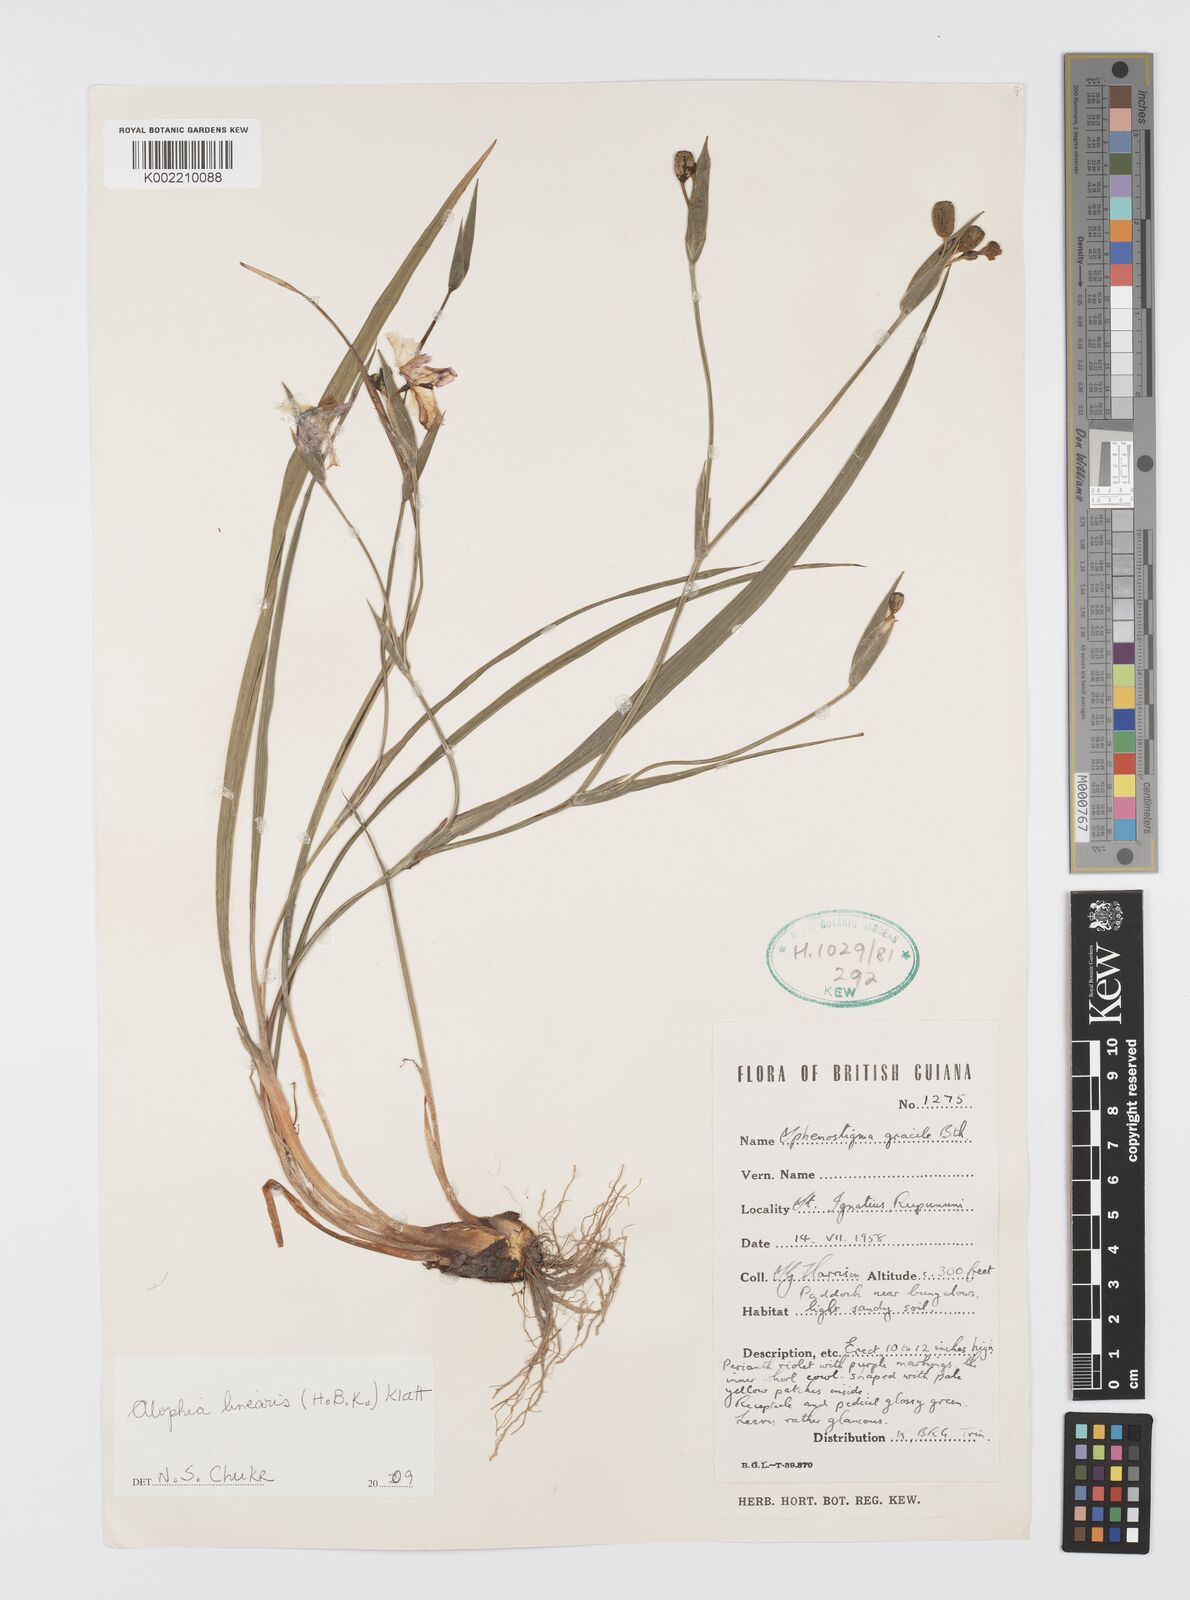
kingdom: Plantae
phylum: Tracheophyta
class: Liliopsida
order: Asparagales
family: Iridaceae
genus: Larentia
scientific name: Larentia linearis
